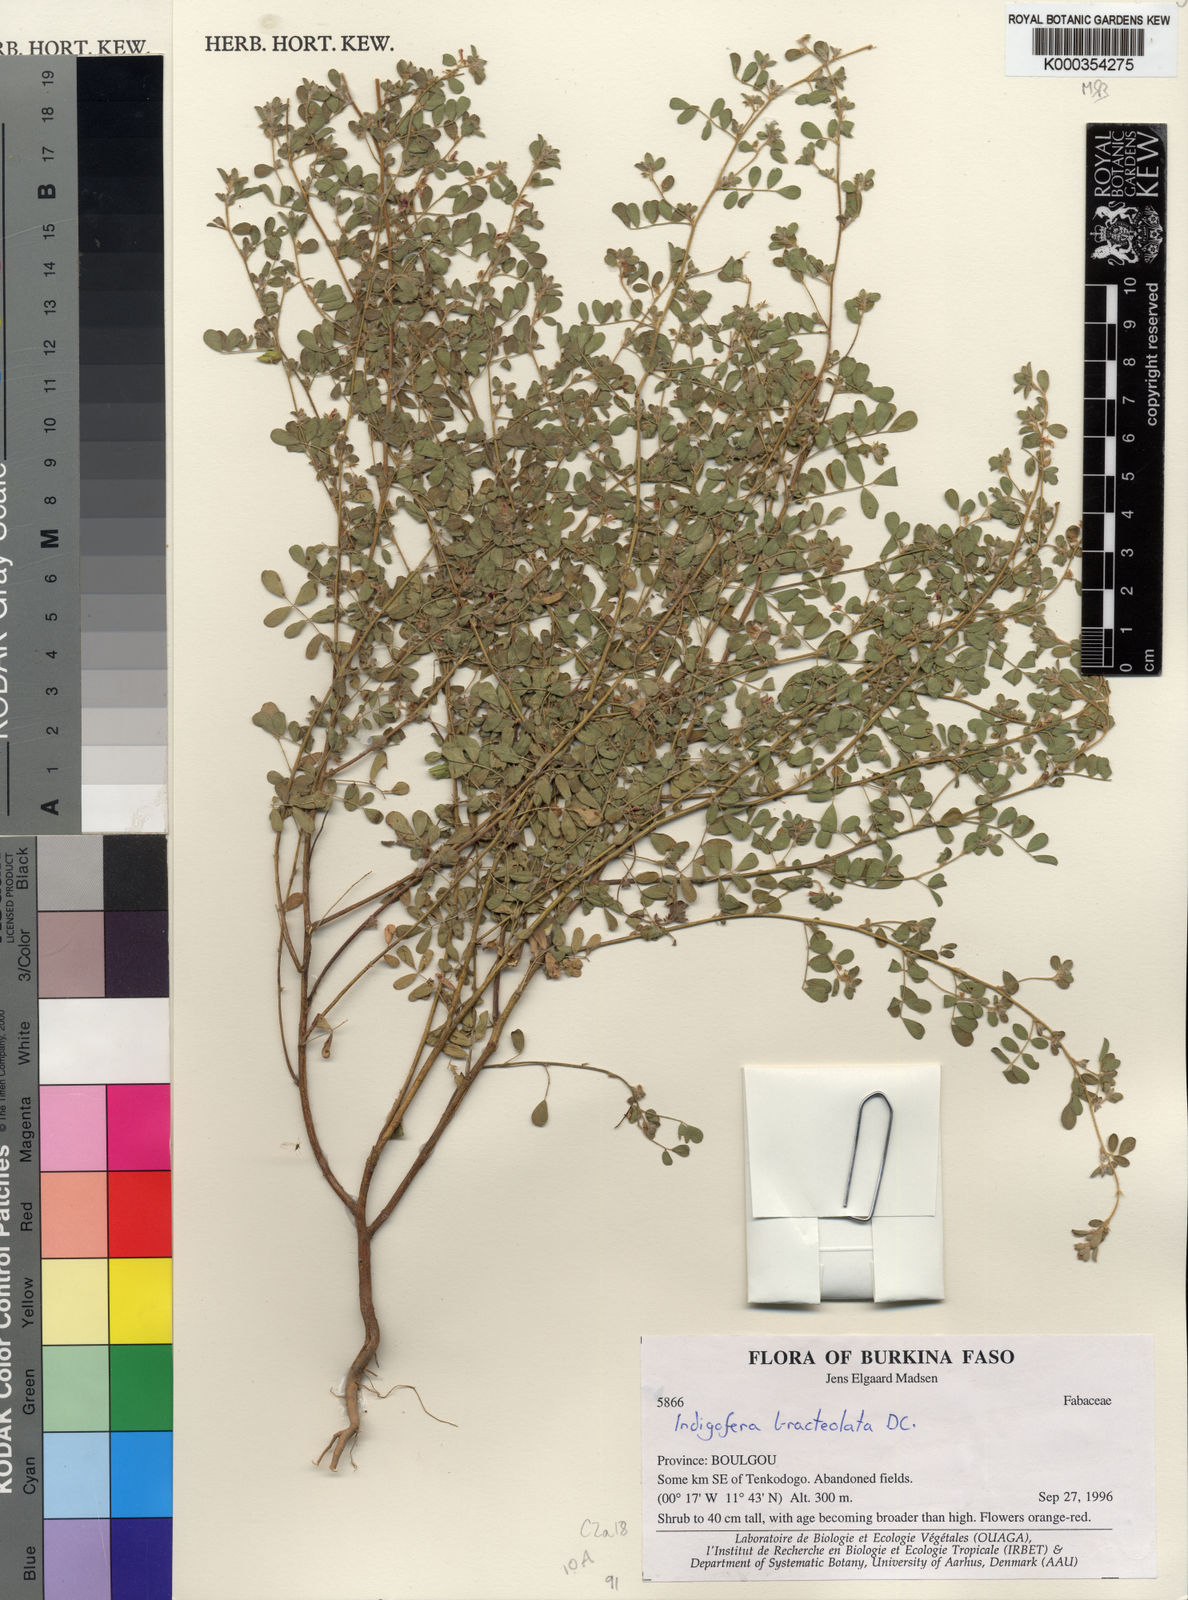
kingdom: Plantae
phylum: Tracheophyta
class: Magnoliopsida
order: Fabales
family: Fabaceae
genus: Indigofera
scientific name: Indigofera bracteolata
